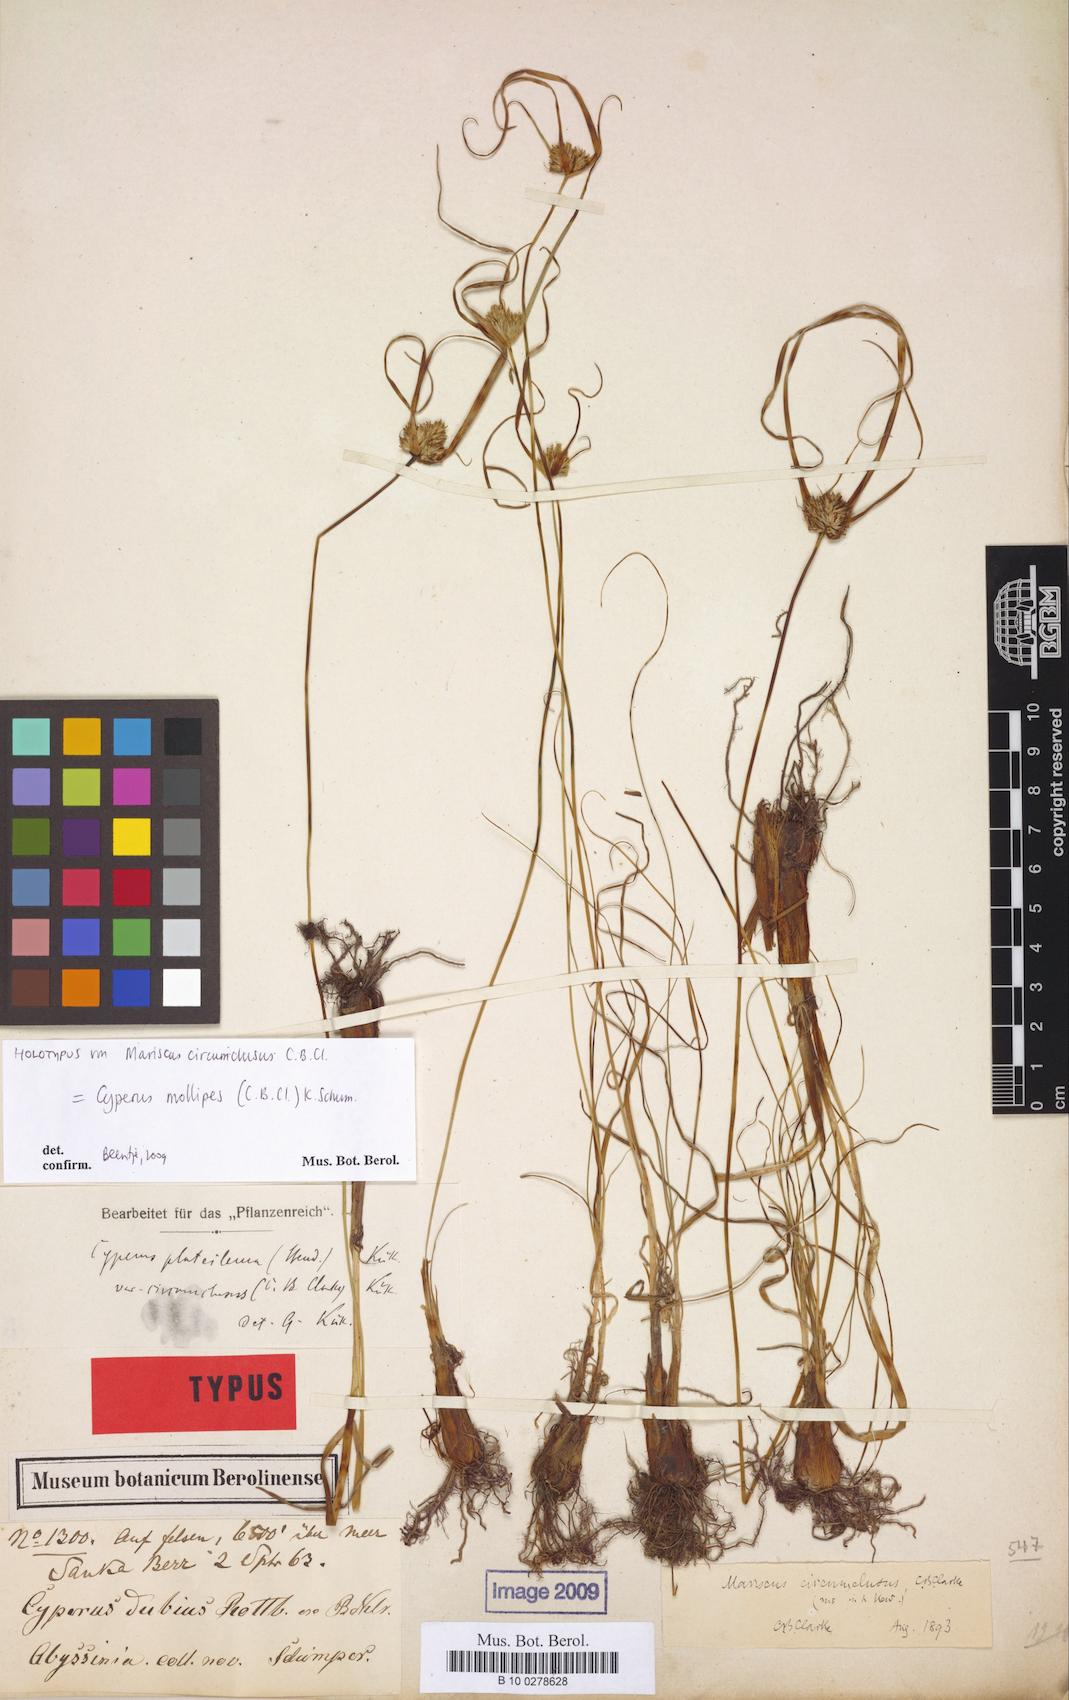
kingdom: Plantae
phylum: Tracheophyta
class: Liliopsida
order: Poales
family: Cyperaceae
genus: Cyperus
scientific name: Cyperus mollipes
